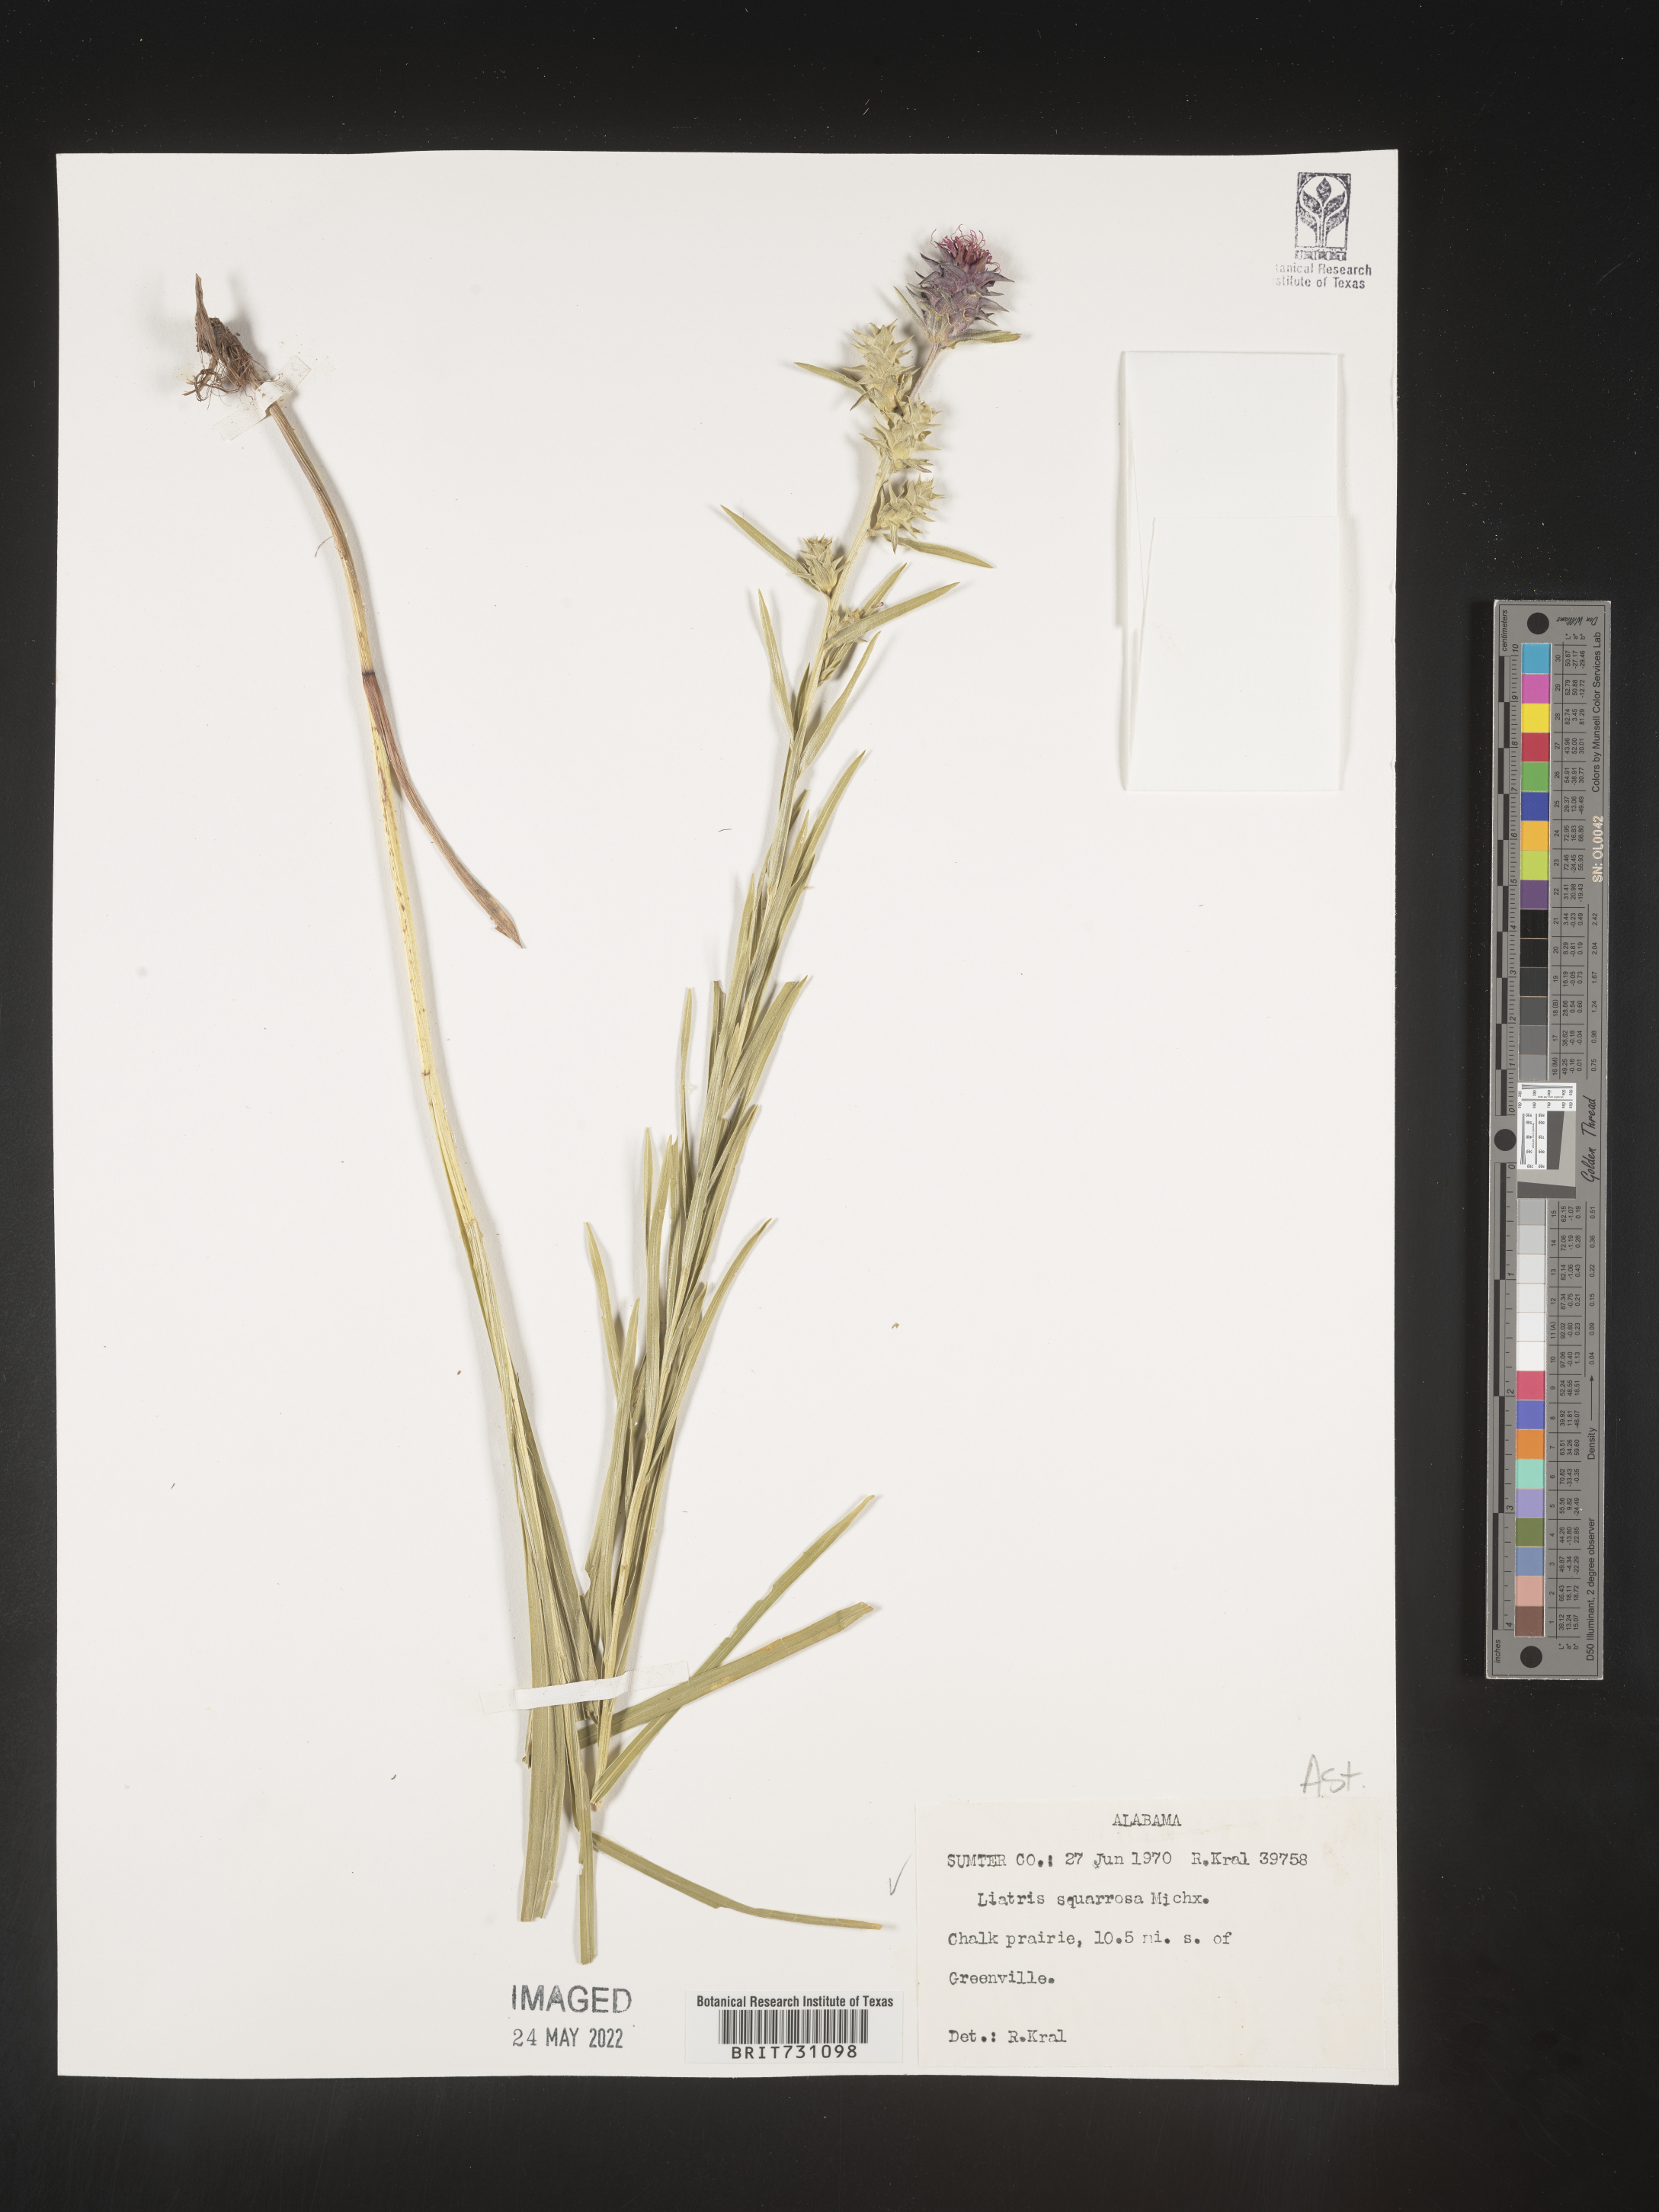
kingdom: Plantae
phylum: Tracheophyta
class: Magnoliopsida
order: Asterales
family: Asteraceae
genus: Liatris
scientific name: Liatris squarrosa
